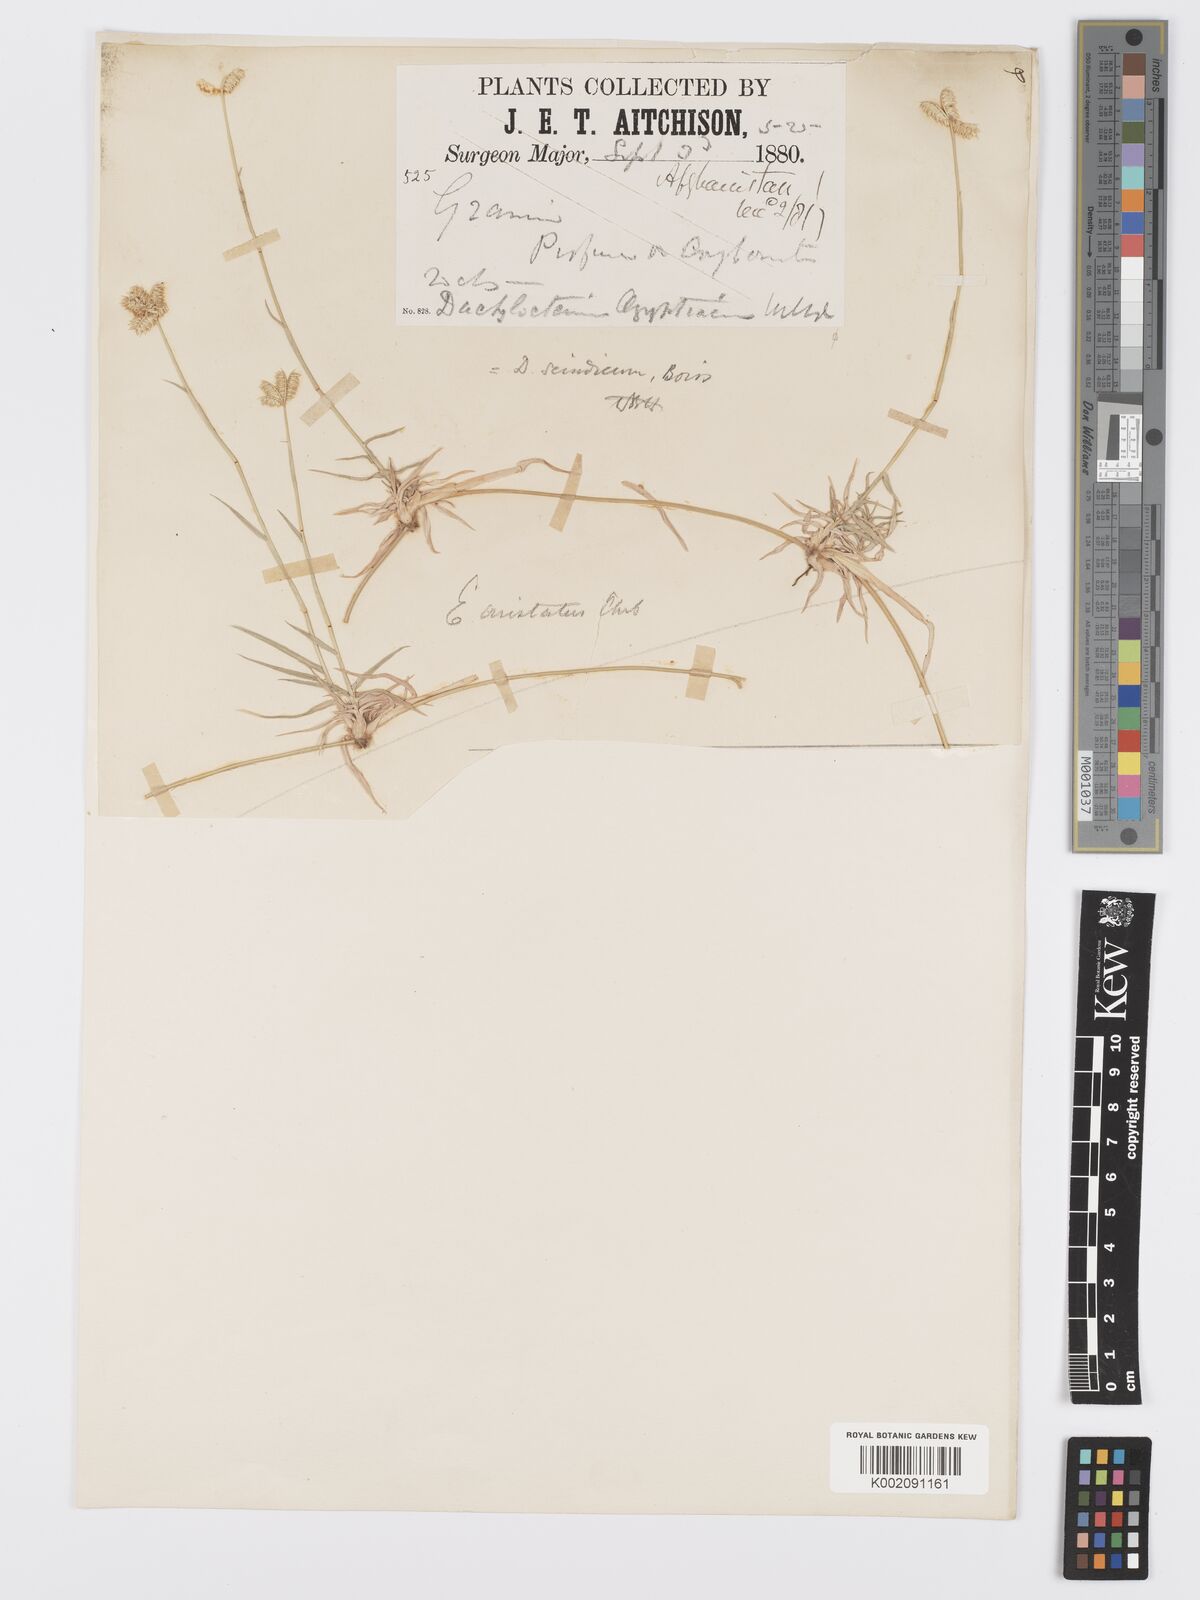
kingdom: Plantae
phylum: Tracheophyta
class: Liliopsida
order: Poales
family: Poaceae
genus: Dactyloctenium
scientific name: Dactyloctenium scindicum
